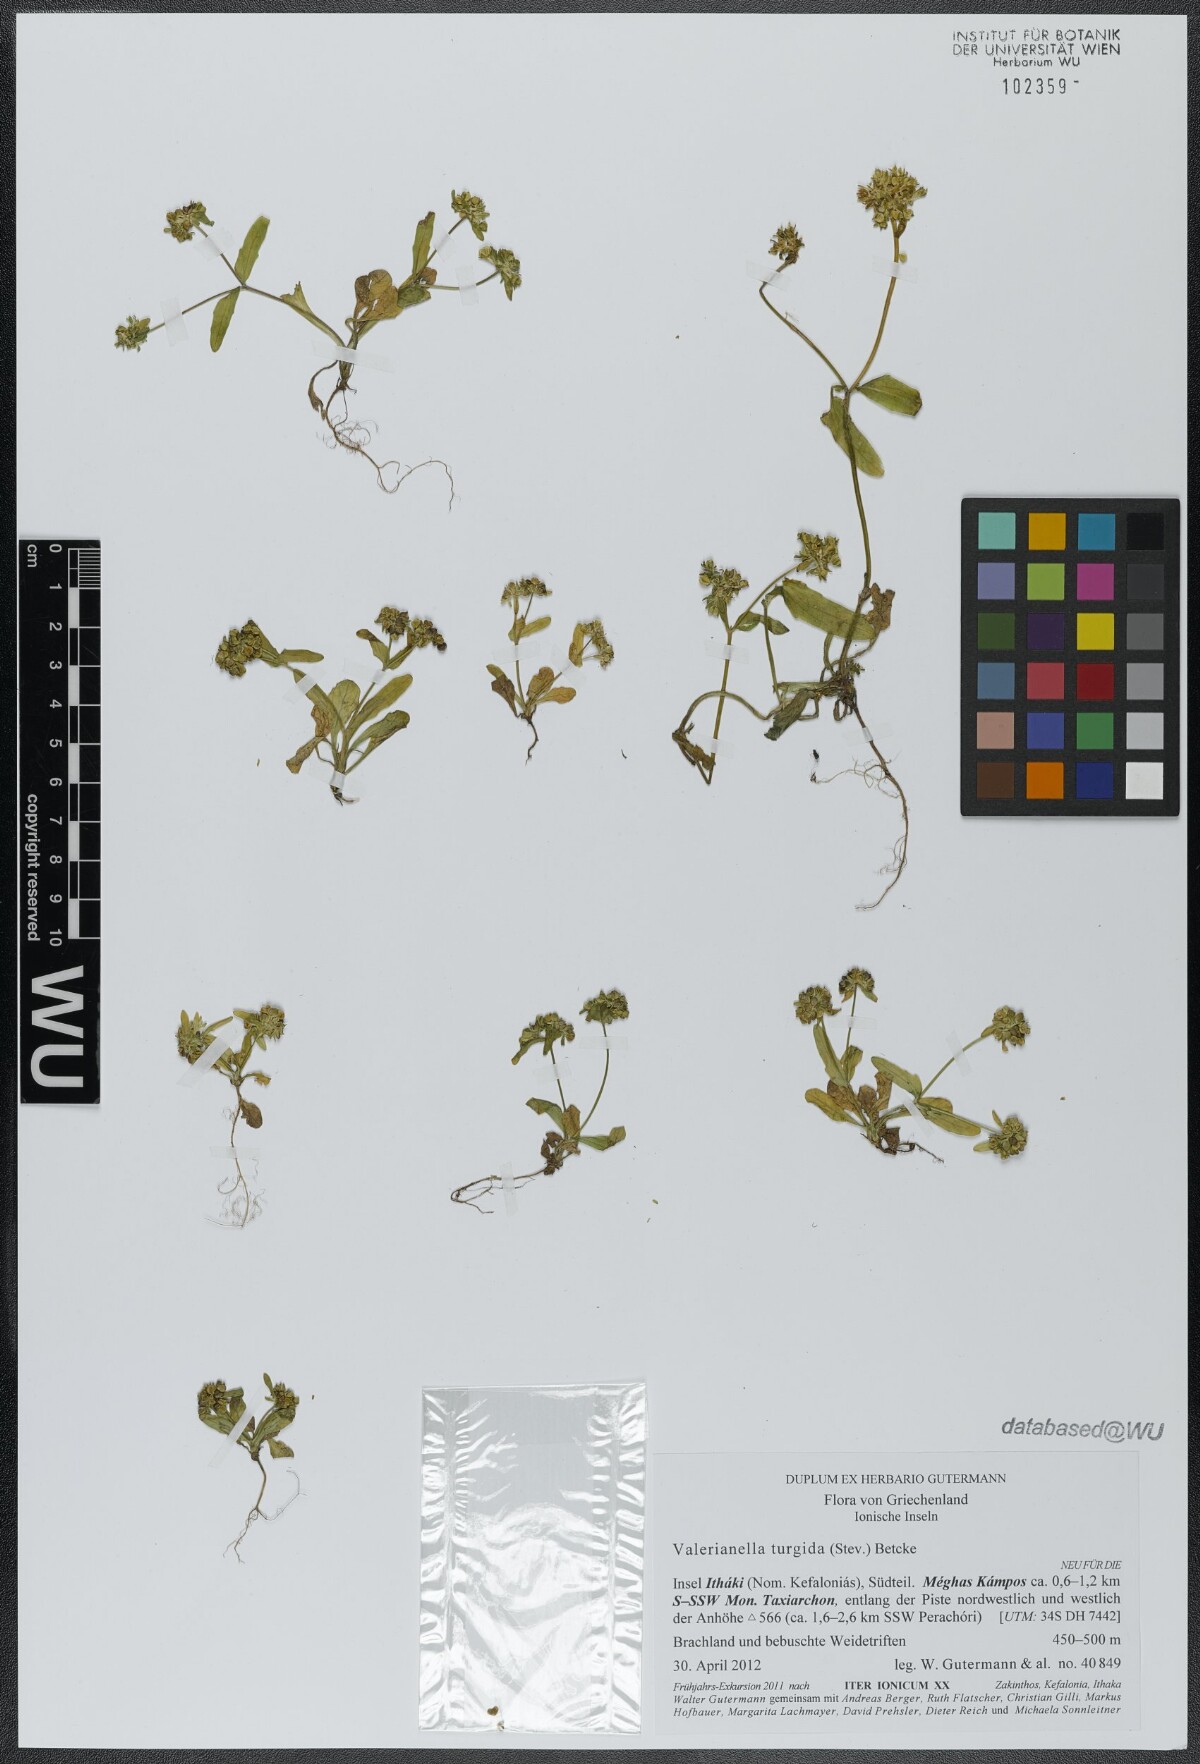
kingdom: Plantae
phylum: Tracheophyta
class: Magnoliopsida
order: Dipsacales
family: Caprifoliaceae
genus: Valerianella
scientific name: Valerianella turgida
